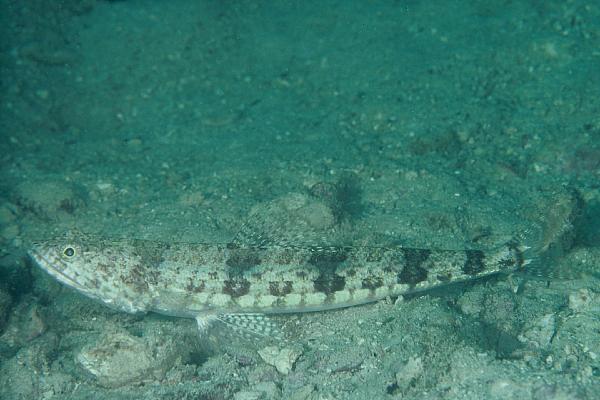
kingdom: Animalia
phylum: Chordata
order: Aulopiformes
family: Synodontidae
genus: Synodus
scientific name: Synodus dermatogenys
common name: Banded lizardfish
